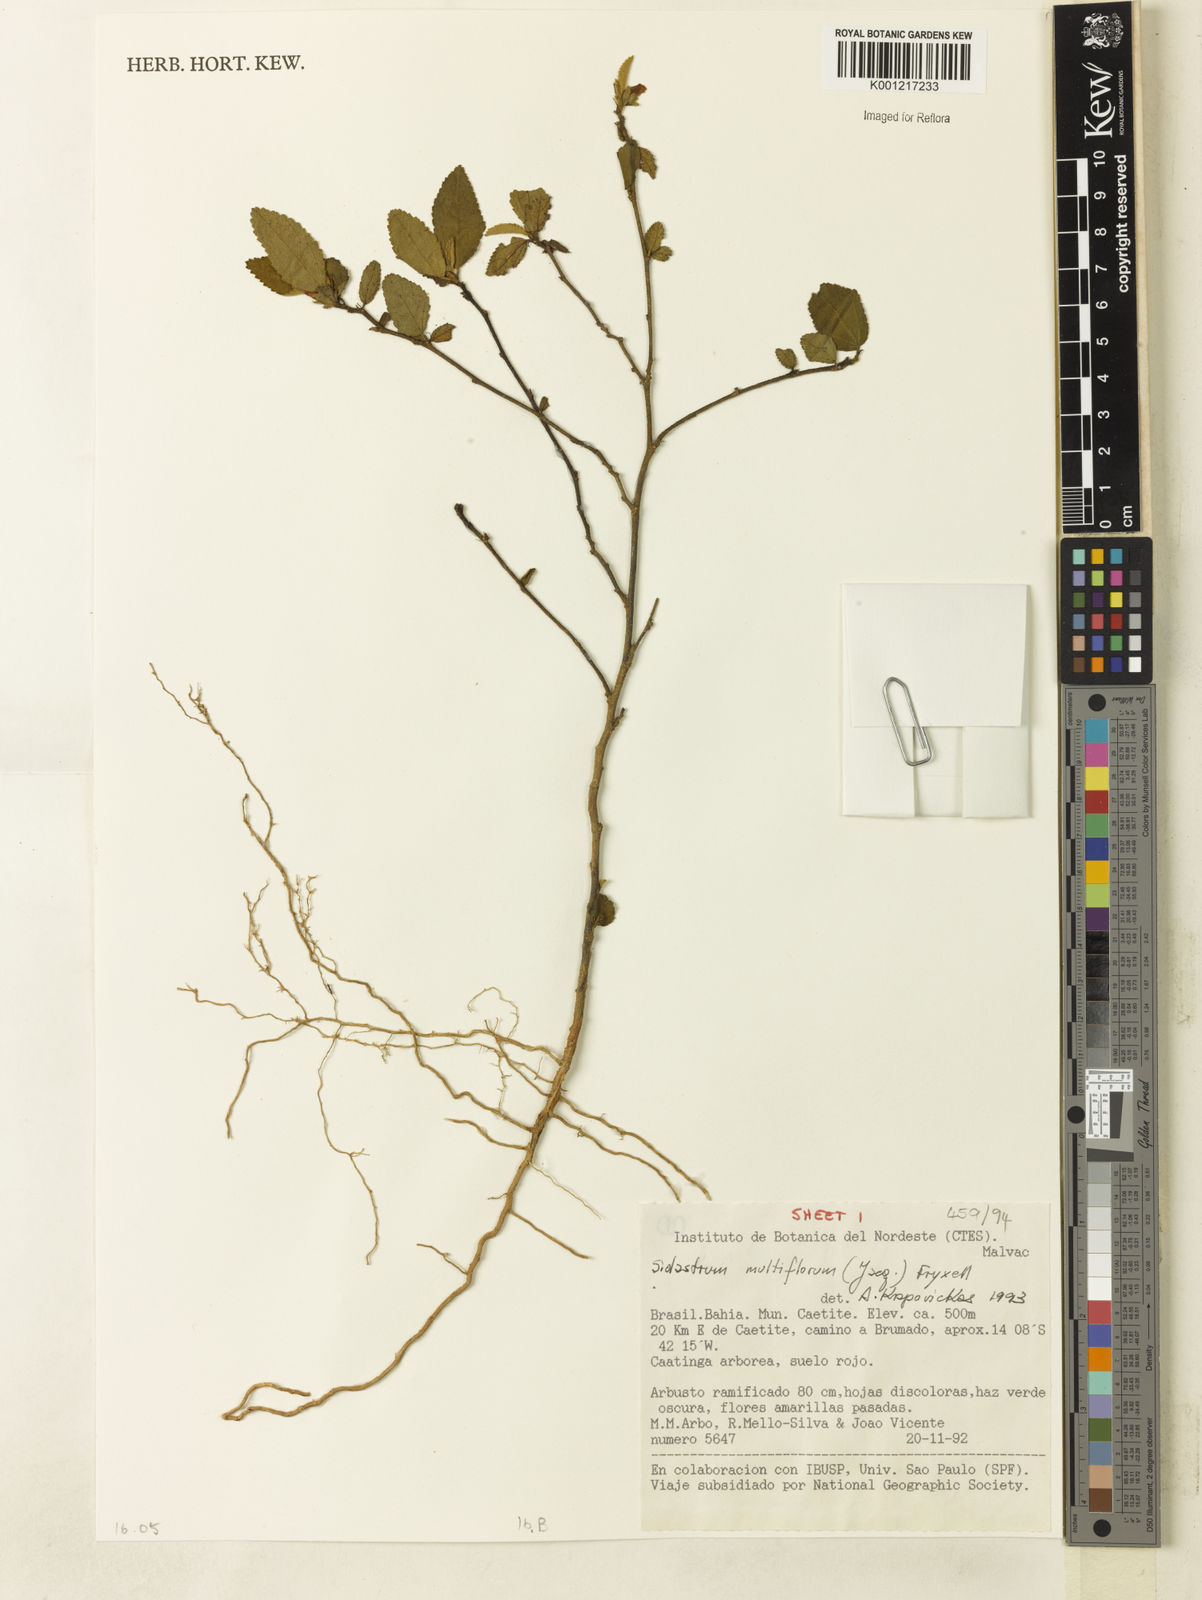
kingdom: Plantae
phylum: Tracheophyta
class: Magnoliopsida
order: Malvales
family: Malvaceae
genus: Sidastrum
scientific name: Sidastrum multiflorum
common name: Manyflower sandmallow
